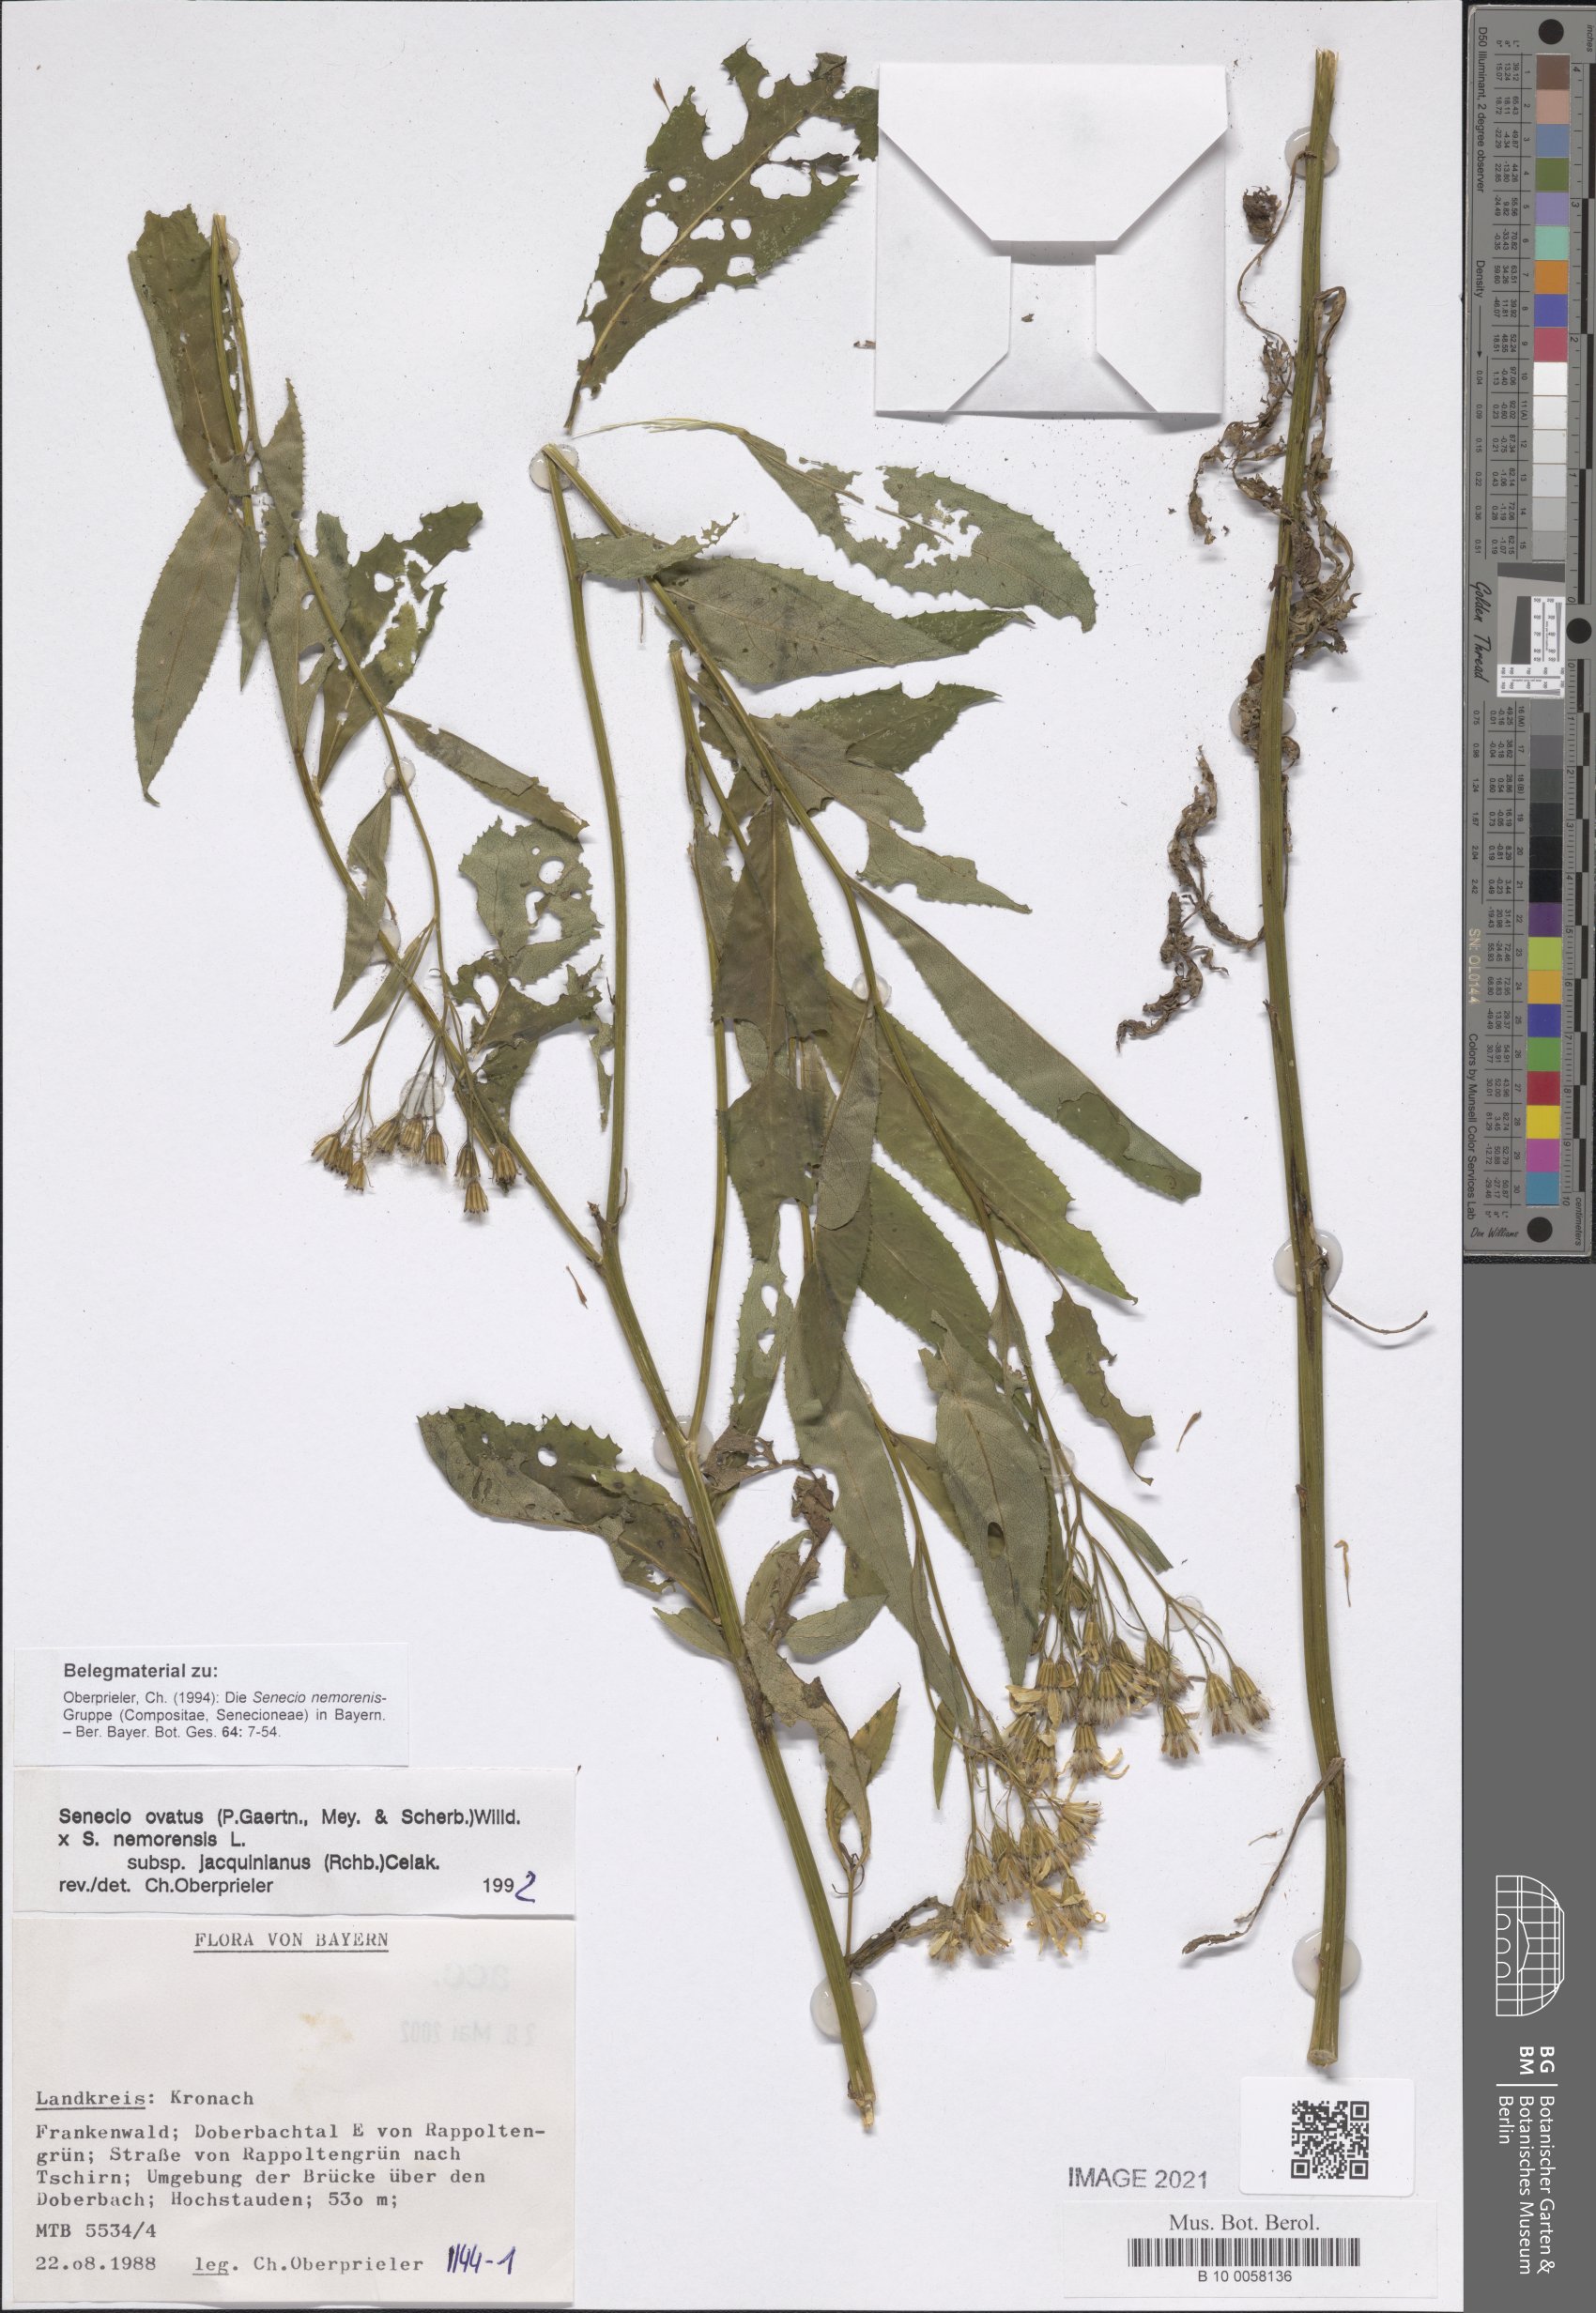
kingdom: Plantae
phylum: Tracheophyta
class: Magnoliopsida
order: Asterales
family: Asteraceae
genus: Senecio
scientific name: Senecio ovatus
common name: Wood ragwort
